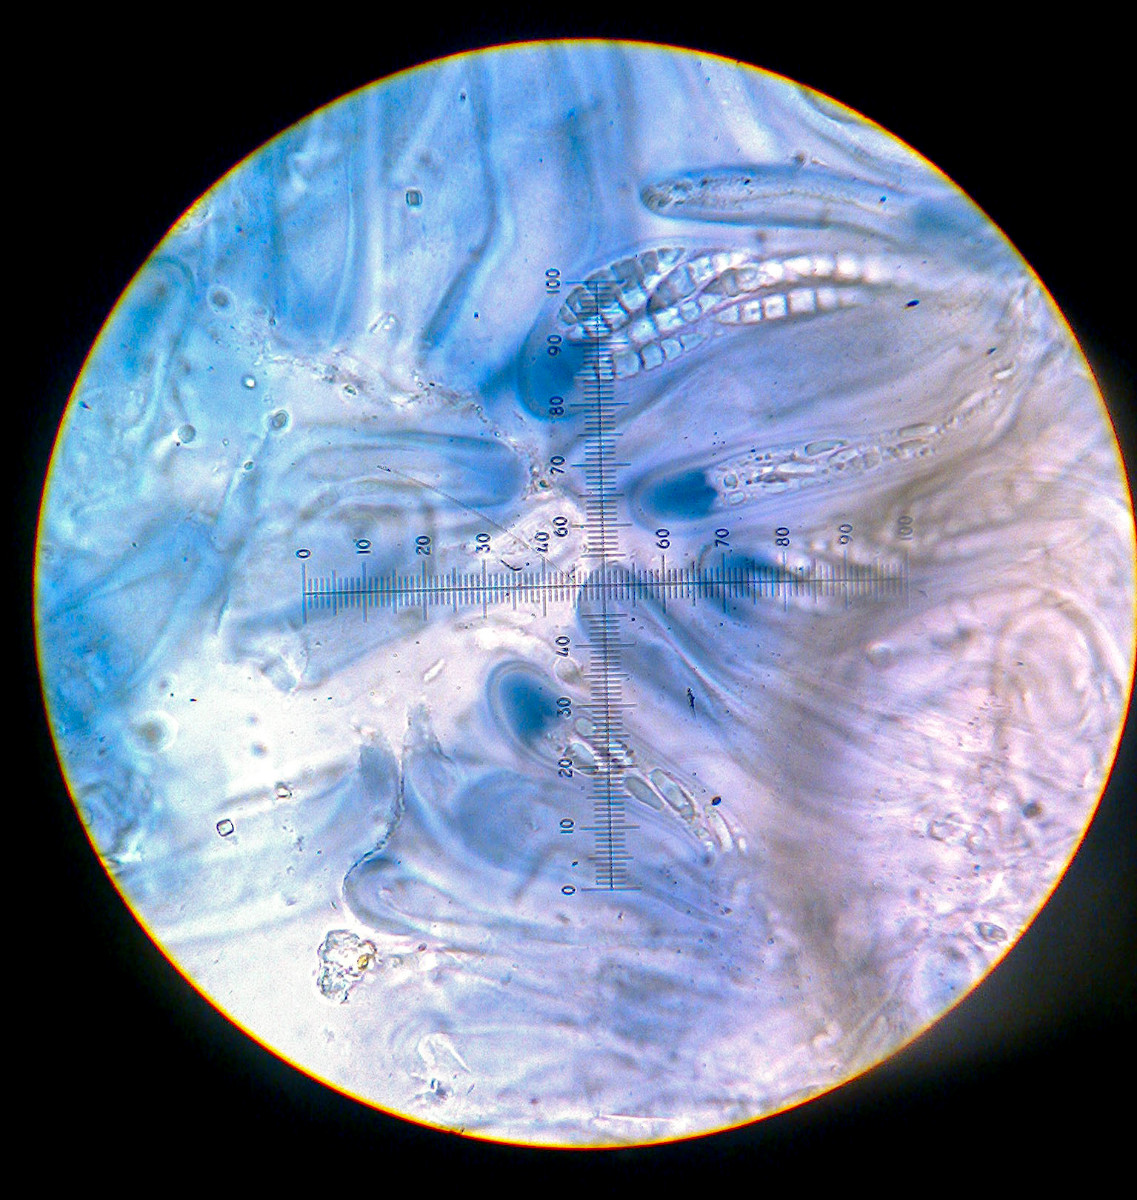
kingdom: Fungi
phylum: Ascomycota
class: Lecanoromycetes
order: Lecanorales
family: Ramalinaceae
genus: Bilimbia
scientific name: Bilimbia sabuletorum
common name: kalk-tensporelav
